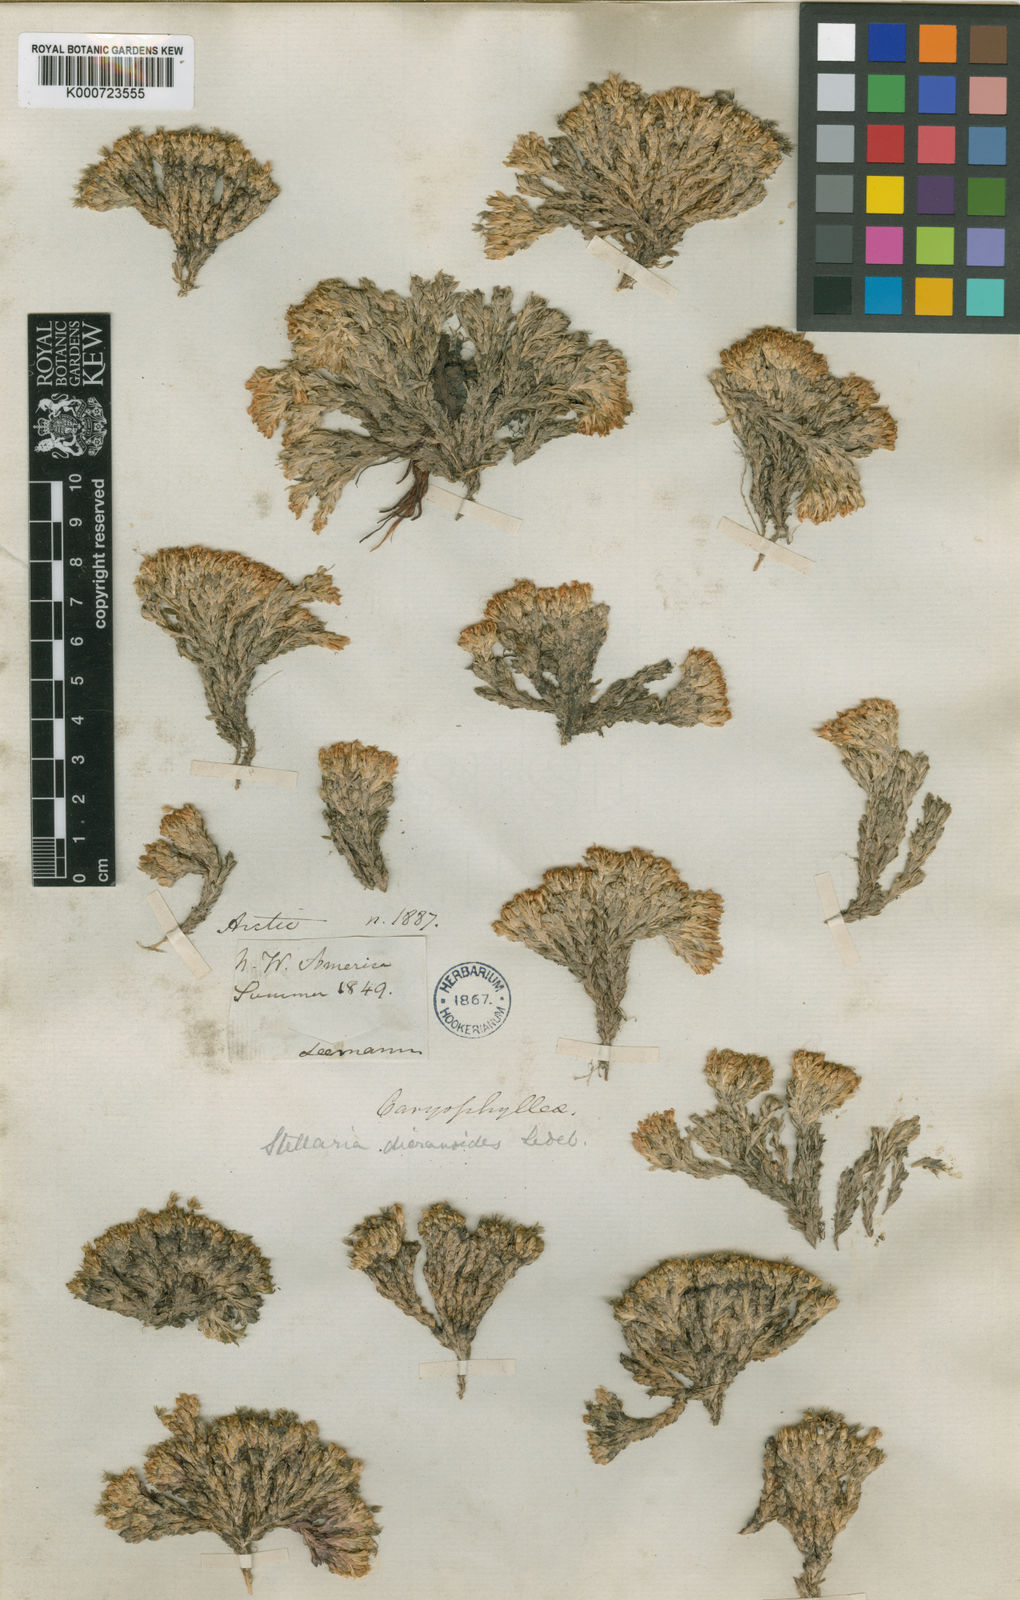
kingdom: Plantae
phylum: Tracheophyta
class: Magnoliopsida
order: Caryophyllales
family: Caryophyllaceae
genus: Stellaria
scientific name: Stellaria dicranoides
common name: Chamisso's starwort
